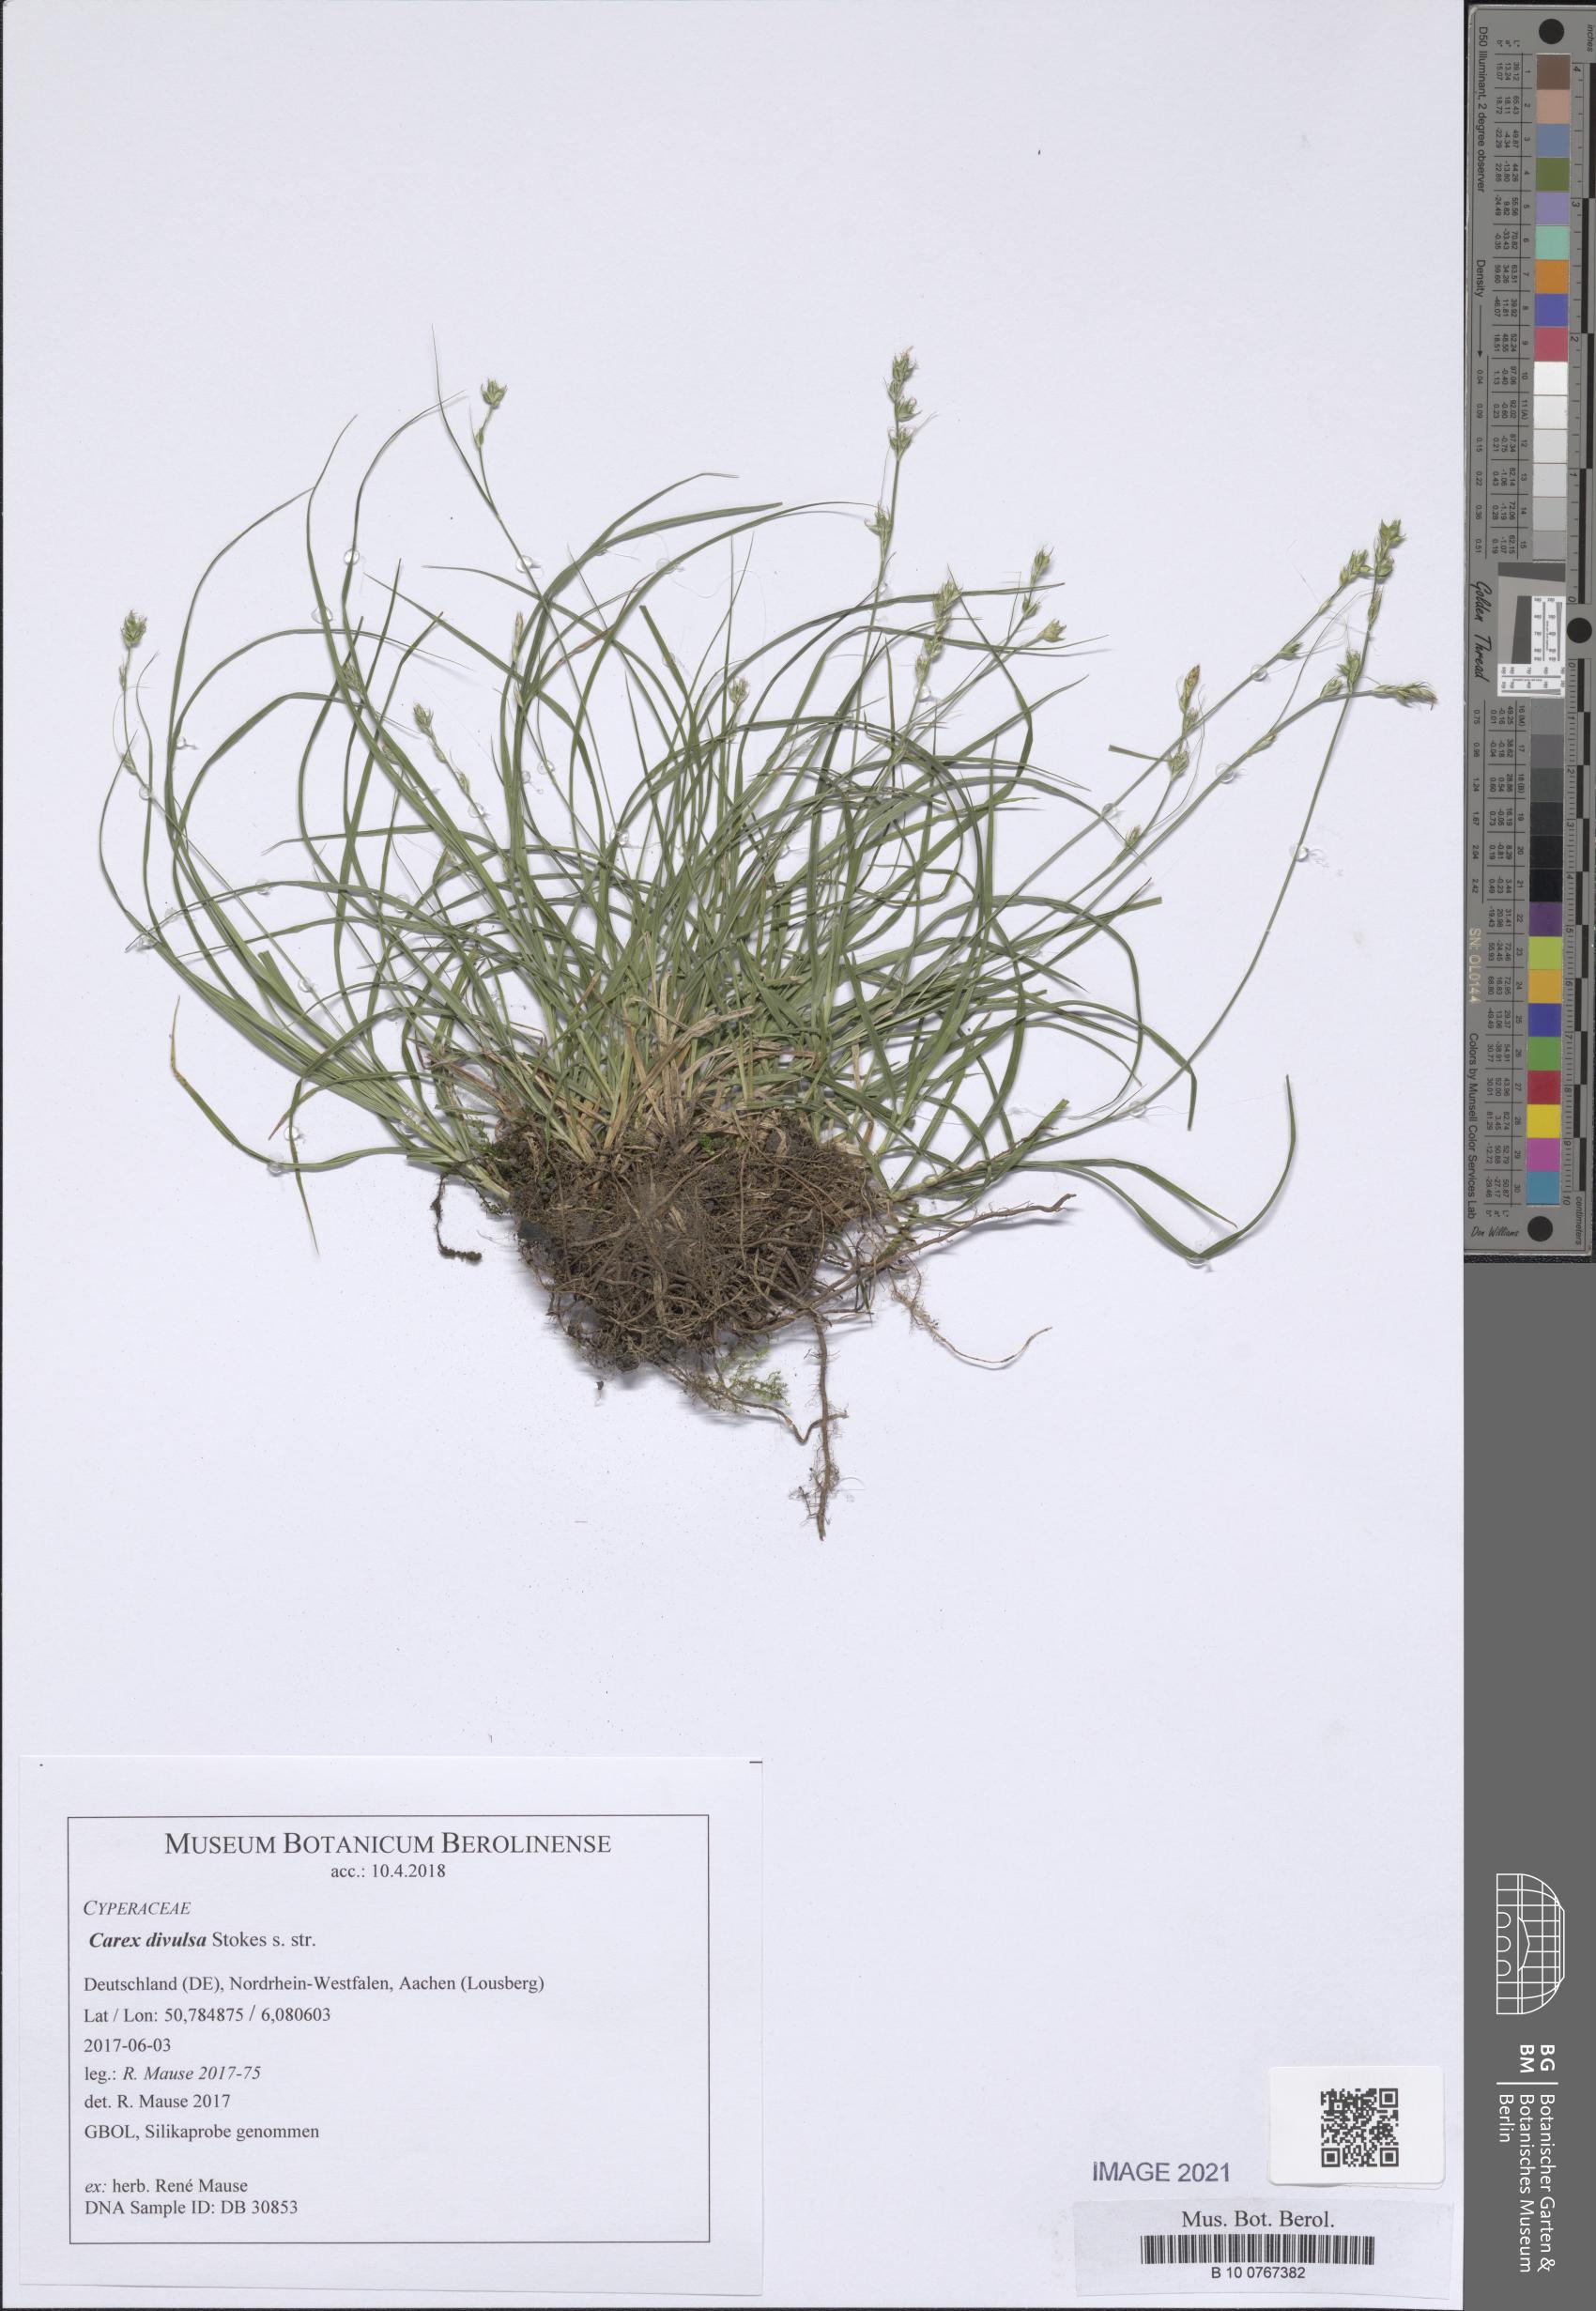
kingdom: Plantae
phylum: Tracheophyta
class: Liliopsida
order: Poales
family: Cyperaceae
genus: Carex
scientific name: Carex divulsa
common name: Grassland sedge
